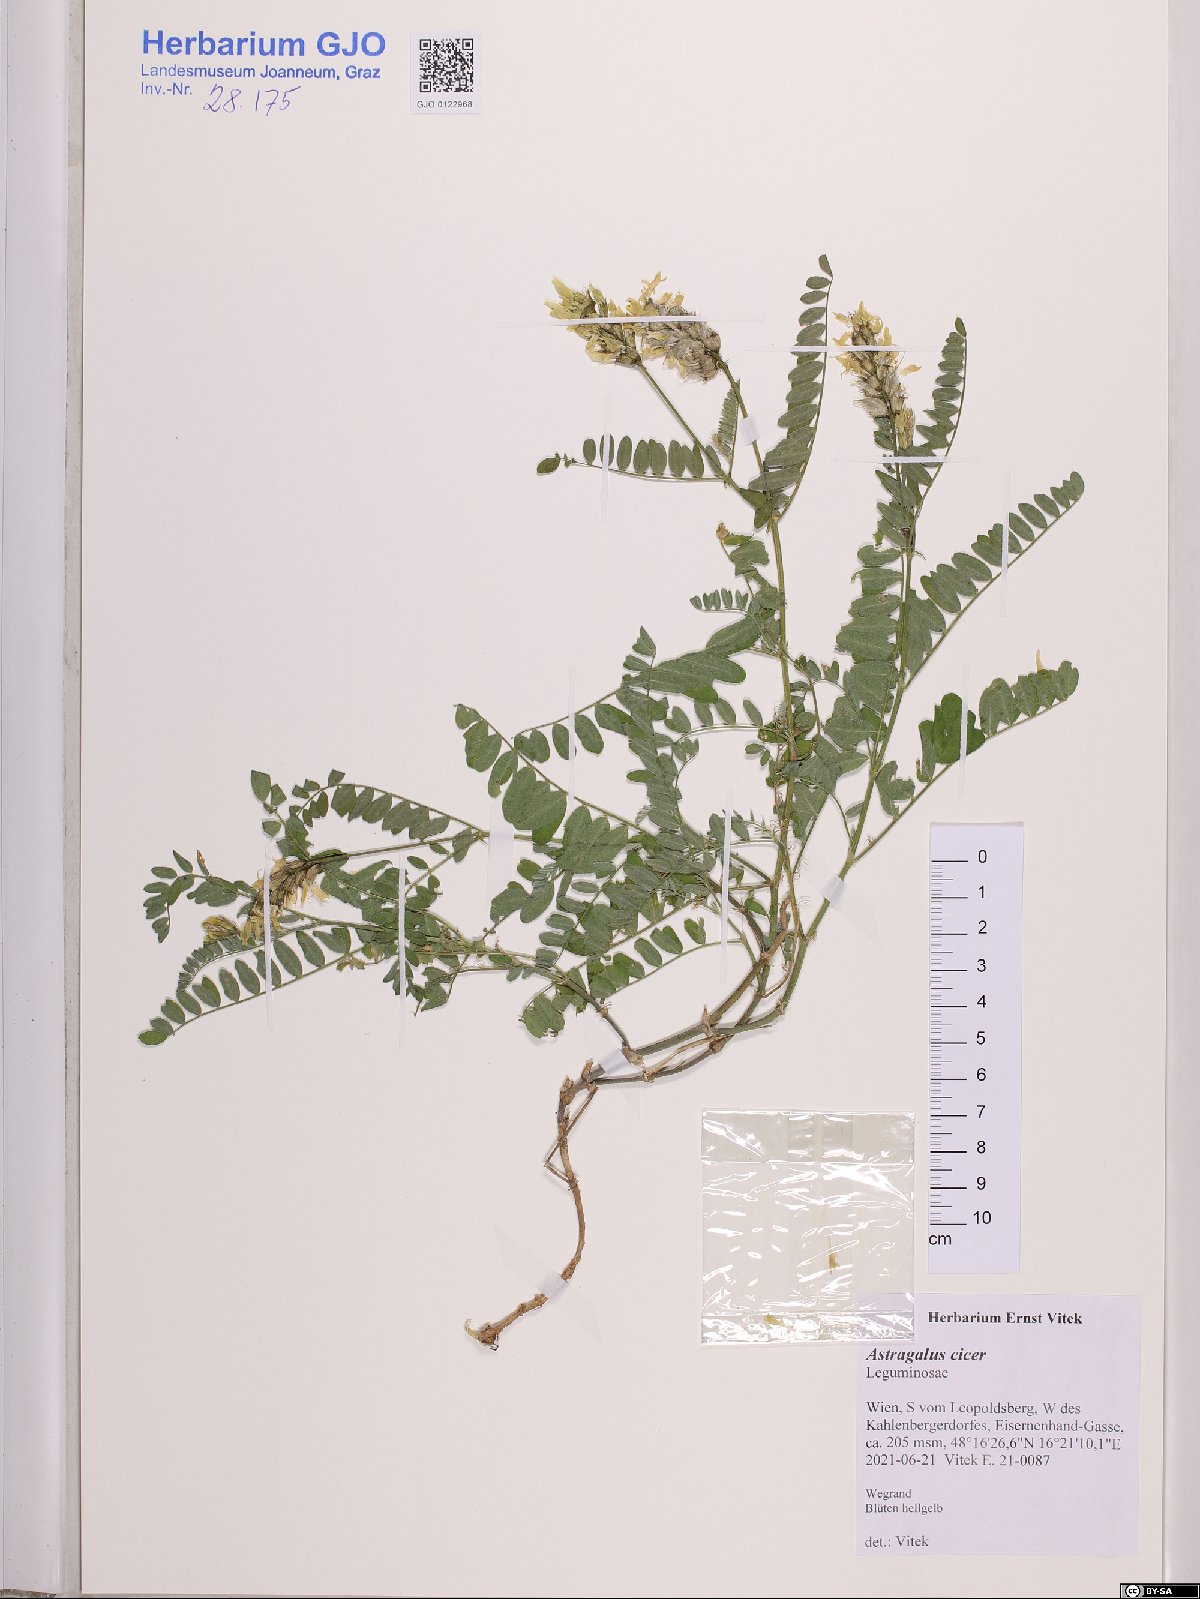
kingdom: Plantae
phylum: Tracheophyta
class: Magnoliopsida
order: Fabales
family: Fabaceae
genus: Astragalus
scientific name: Astragalus cicer
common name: Chick-pea milk-vetch
